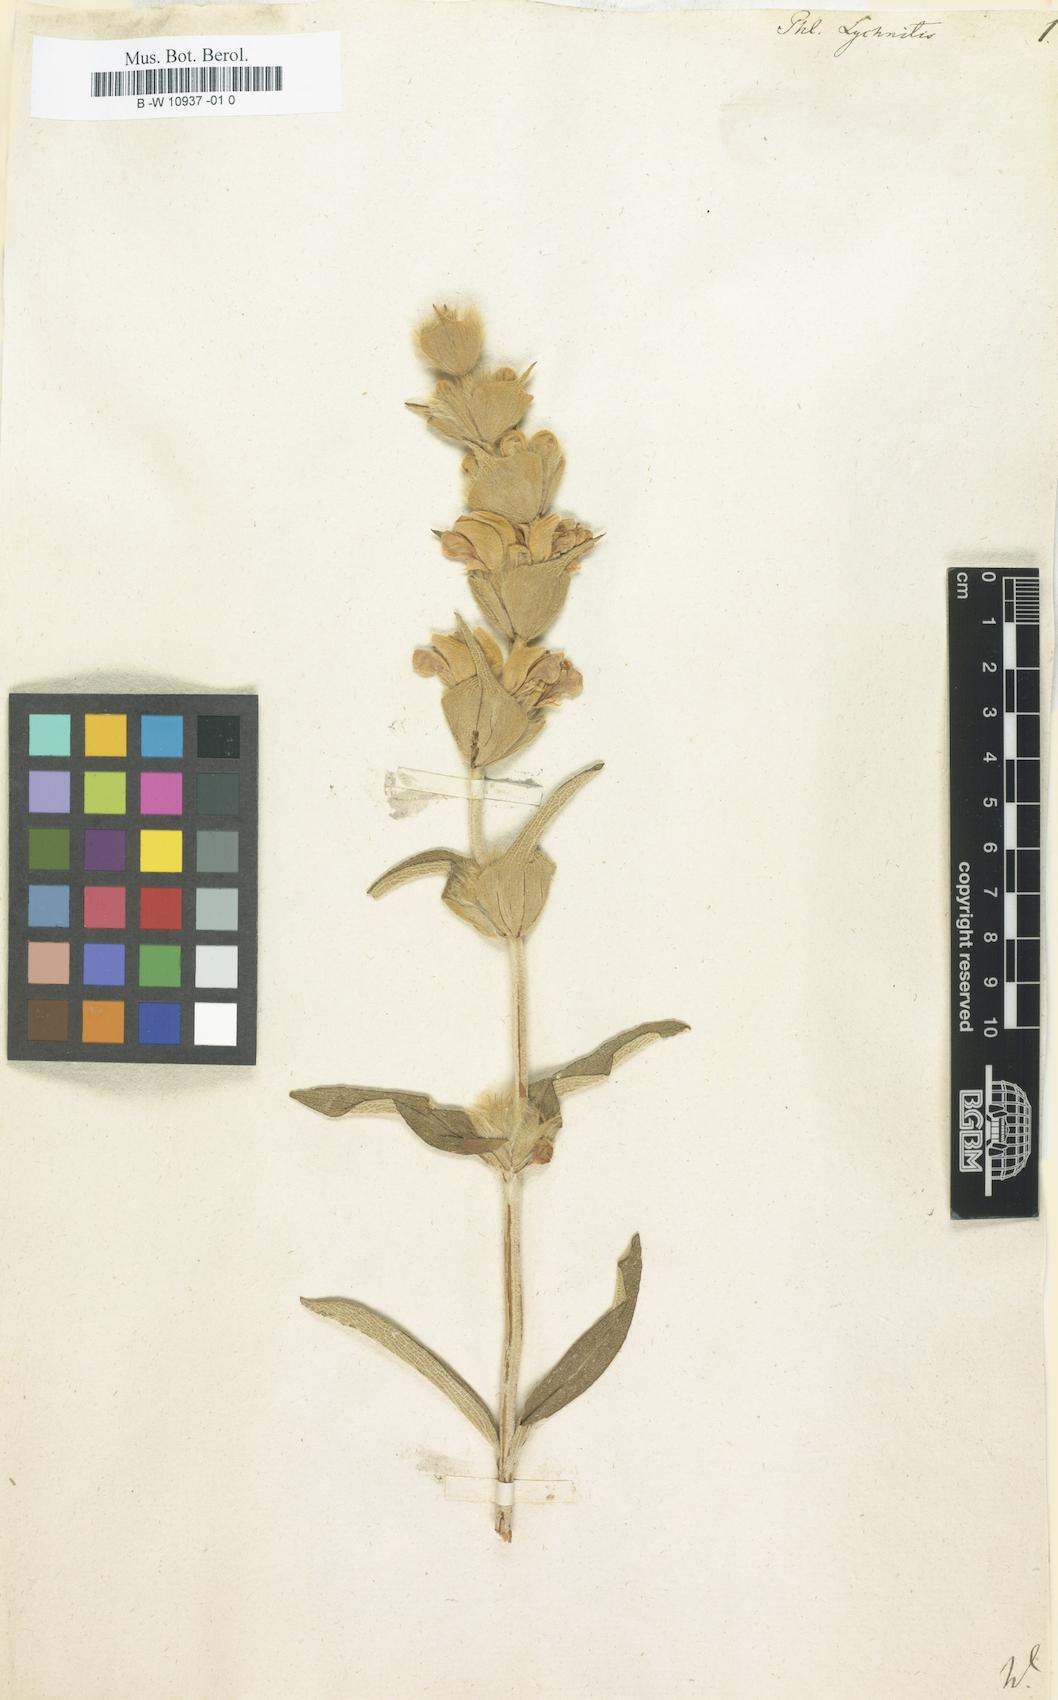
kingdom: Plantae
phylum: Tracheophyta
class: Magnoliopsida
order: Lamiales
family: Lamiaceae
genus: Phlomis
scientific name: Phlomis lychnitis
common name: Lampwickplant
